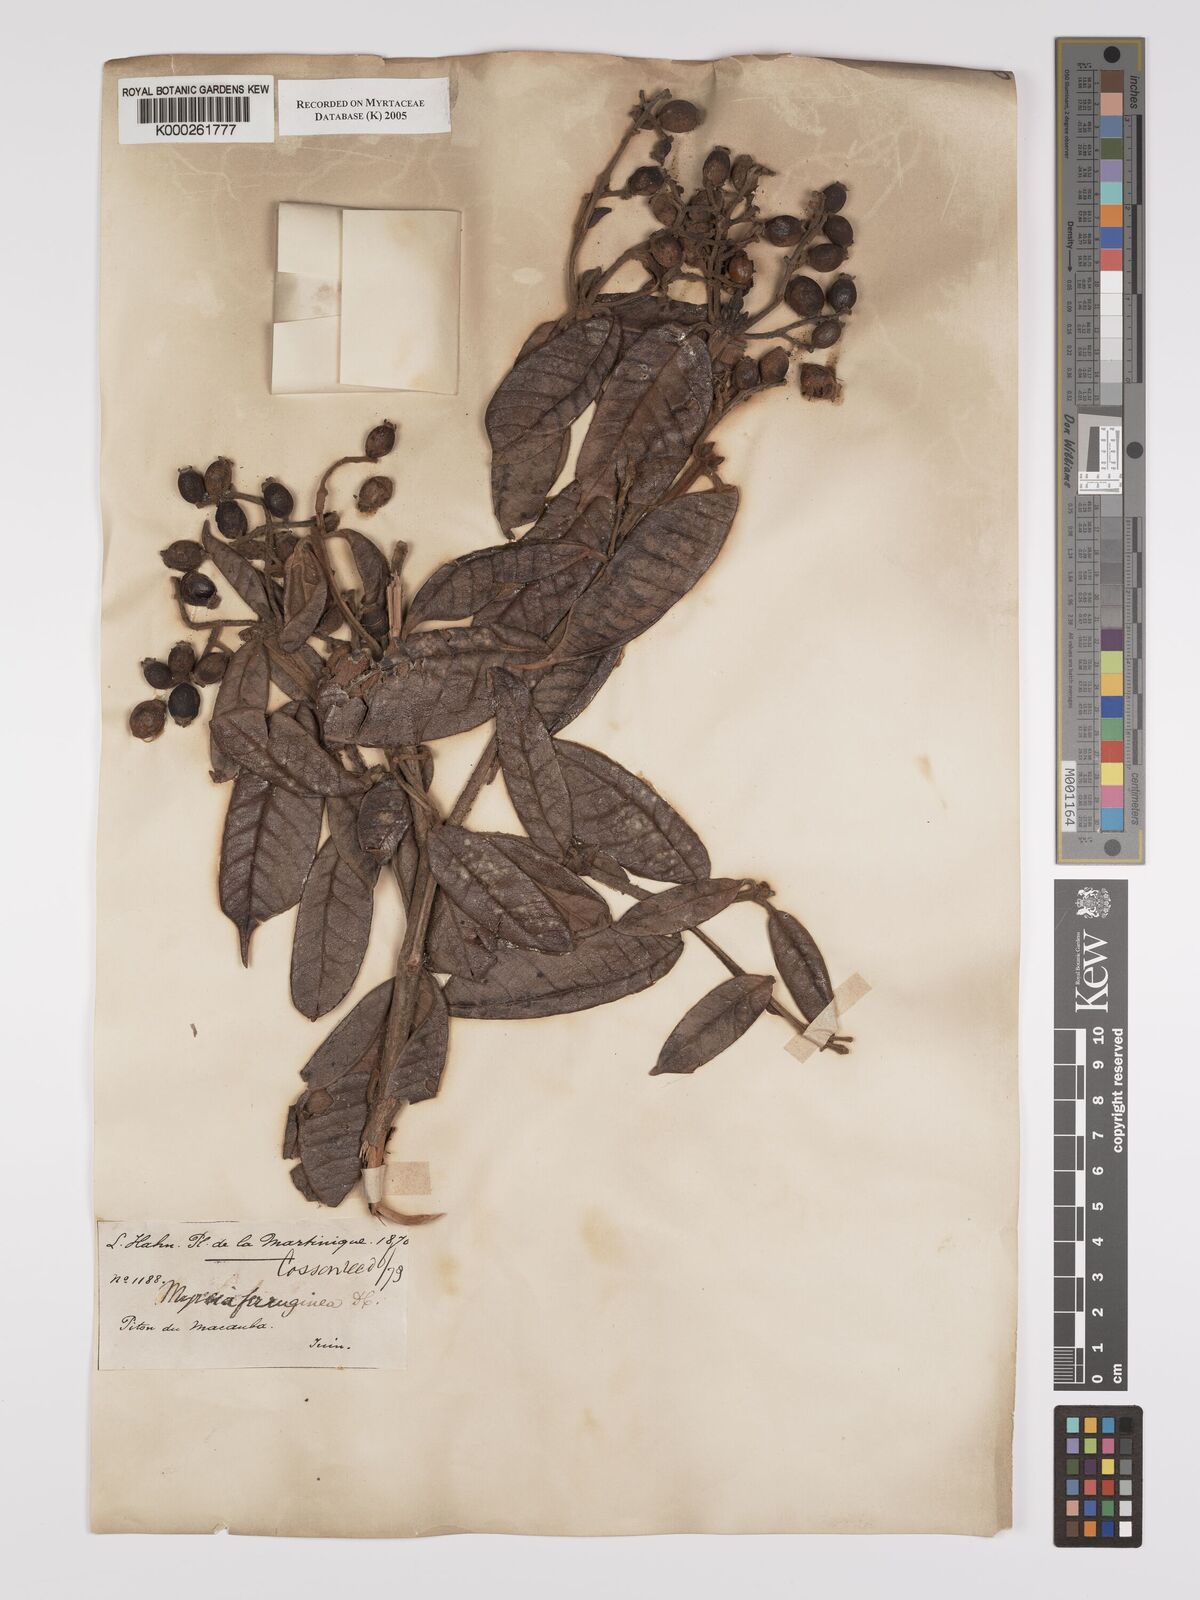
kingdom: Plantae
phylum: Tracheophyta
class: Magnoliopsida
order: Myrtales
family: Myrtaceae
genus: Myrcia
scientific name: Myrcia ferruginea
